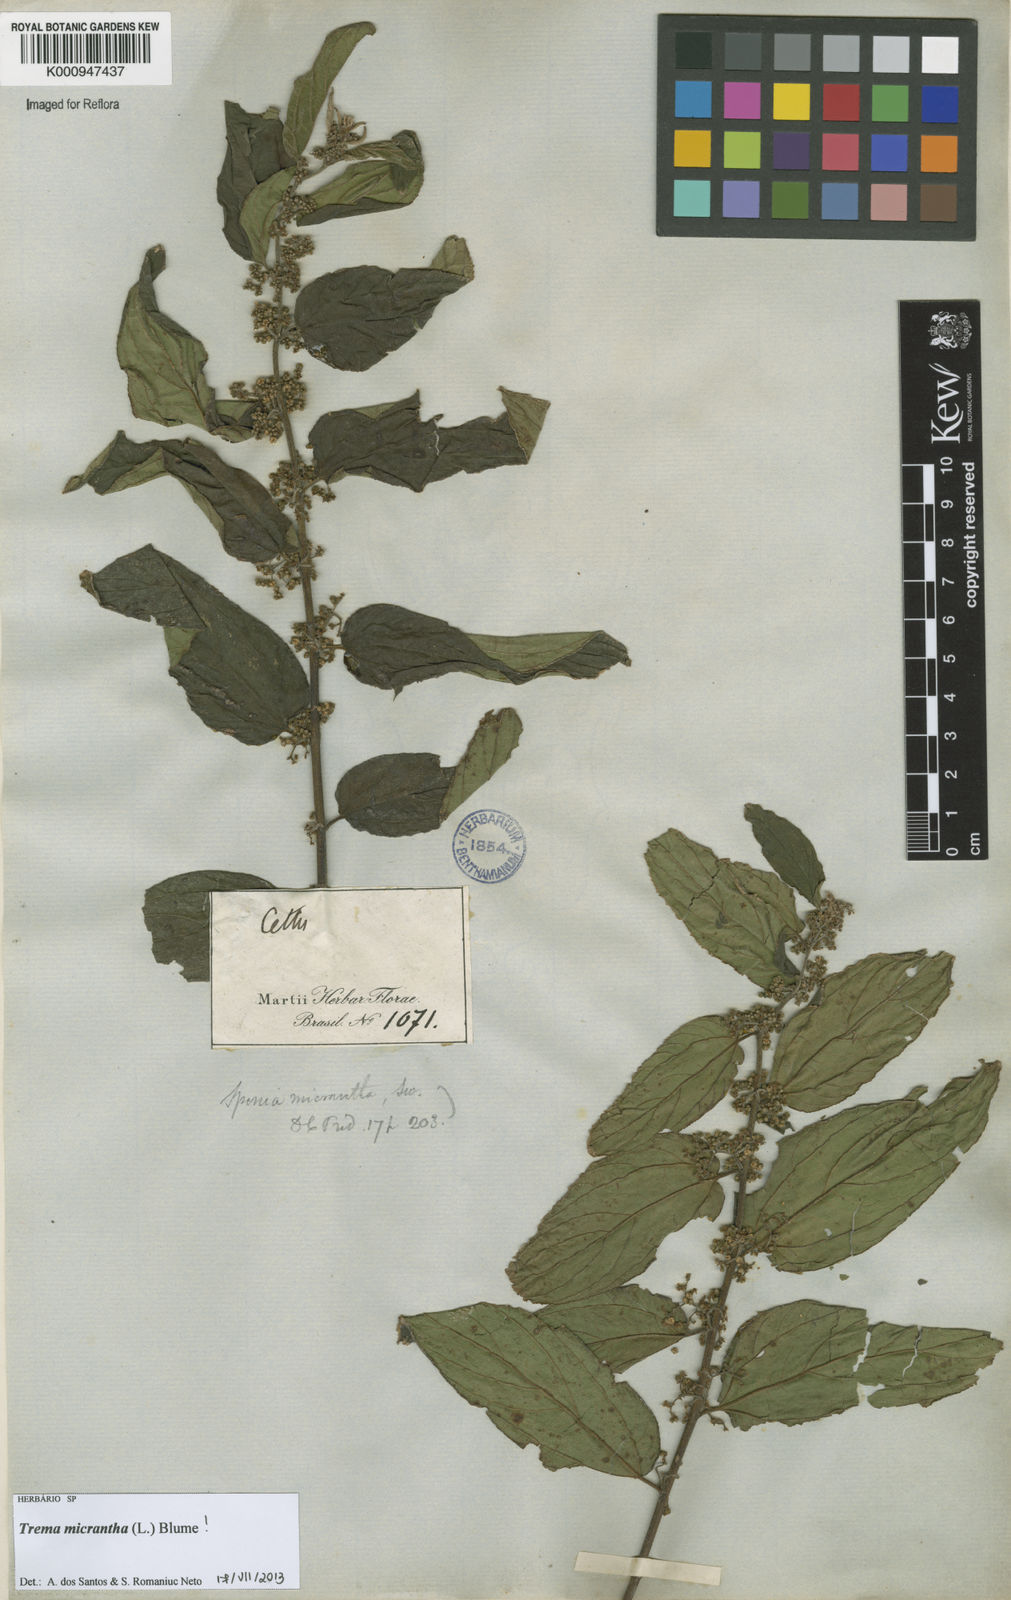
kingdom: Plantae
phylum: Tracheophyta
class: Magnoliopsida
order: Rosales
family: Cannabaceae
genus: Trema
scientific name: Trema micranthum
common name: Jamaican nettletree
